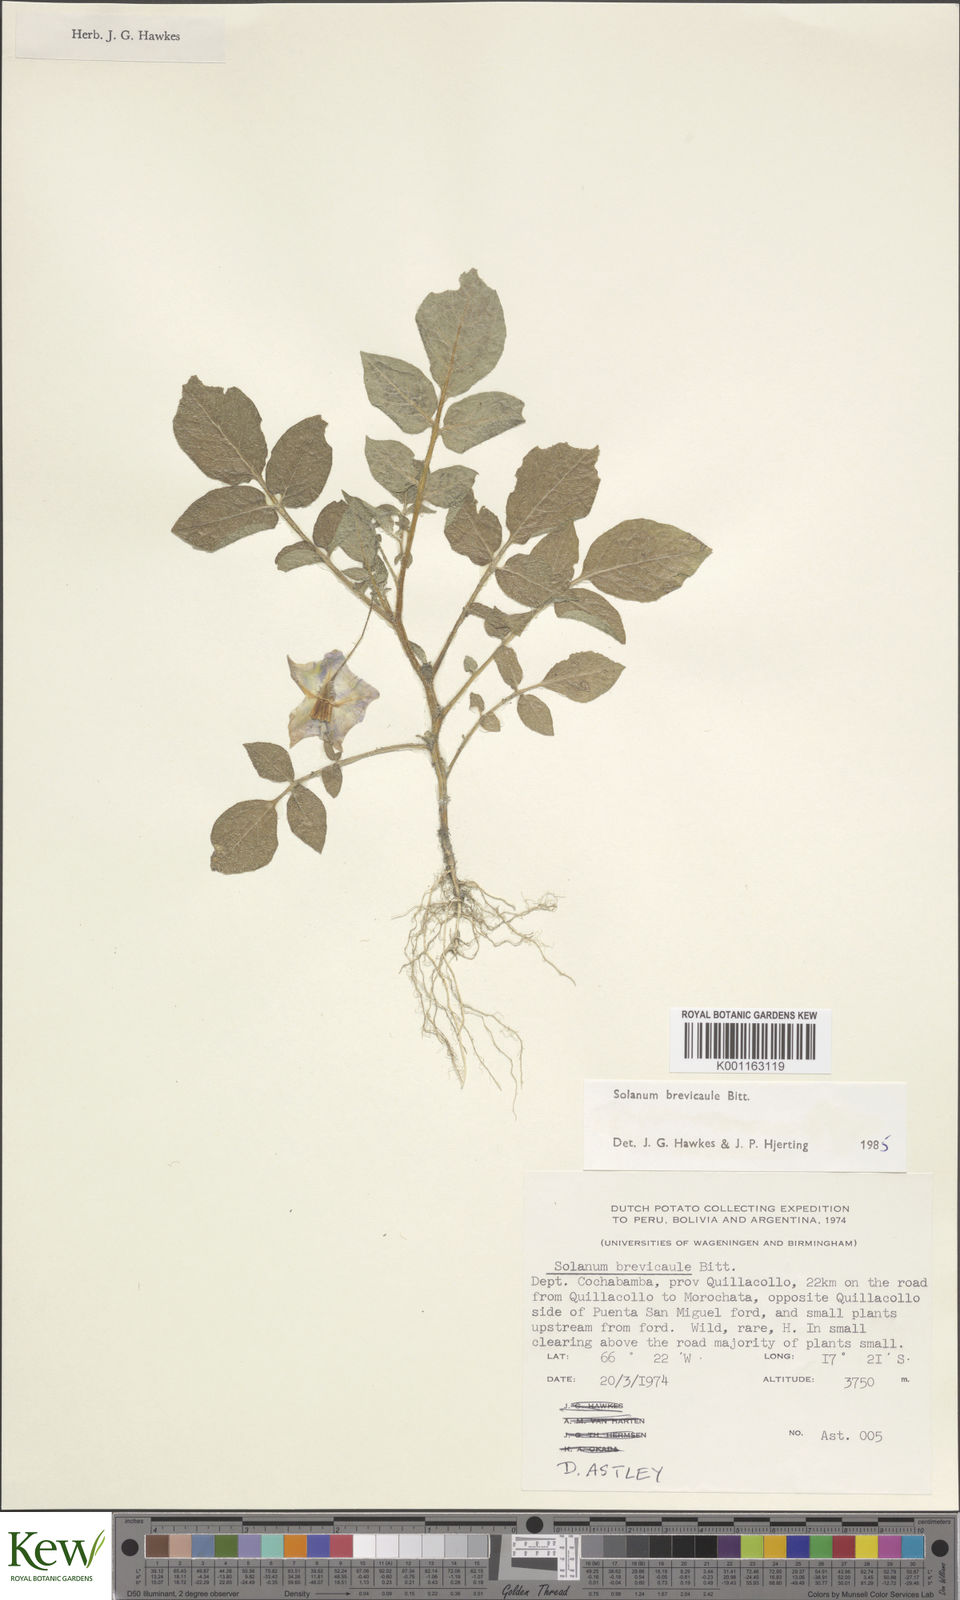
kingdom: Plantae
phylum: Tracheophyta
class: Magnoliopsida
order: Solanales
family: Solanaceae
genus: Solanum
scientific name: Solanum brevicaule
